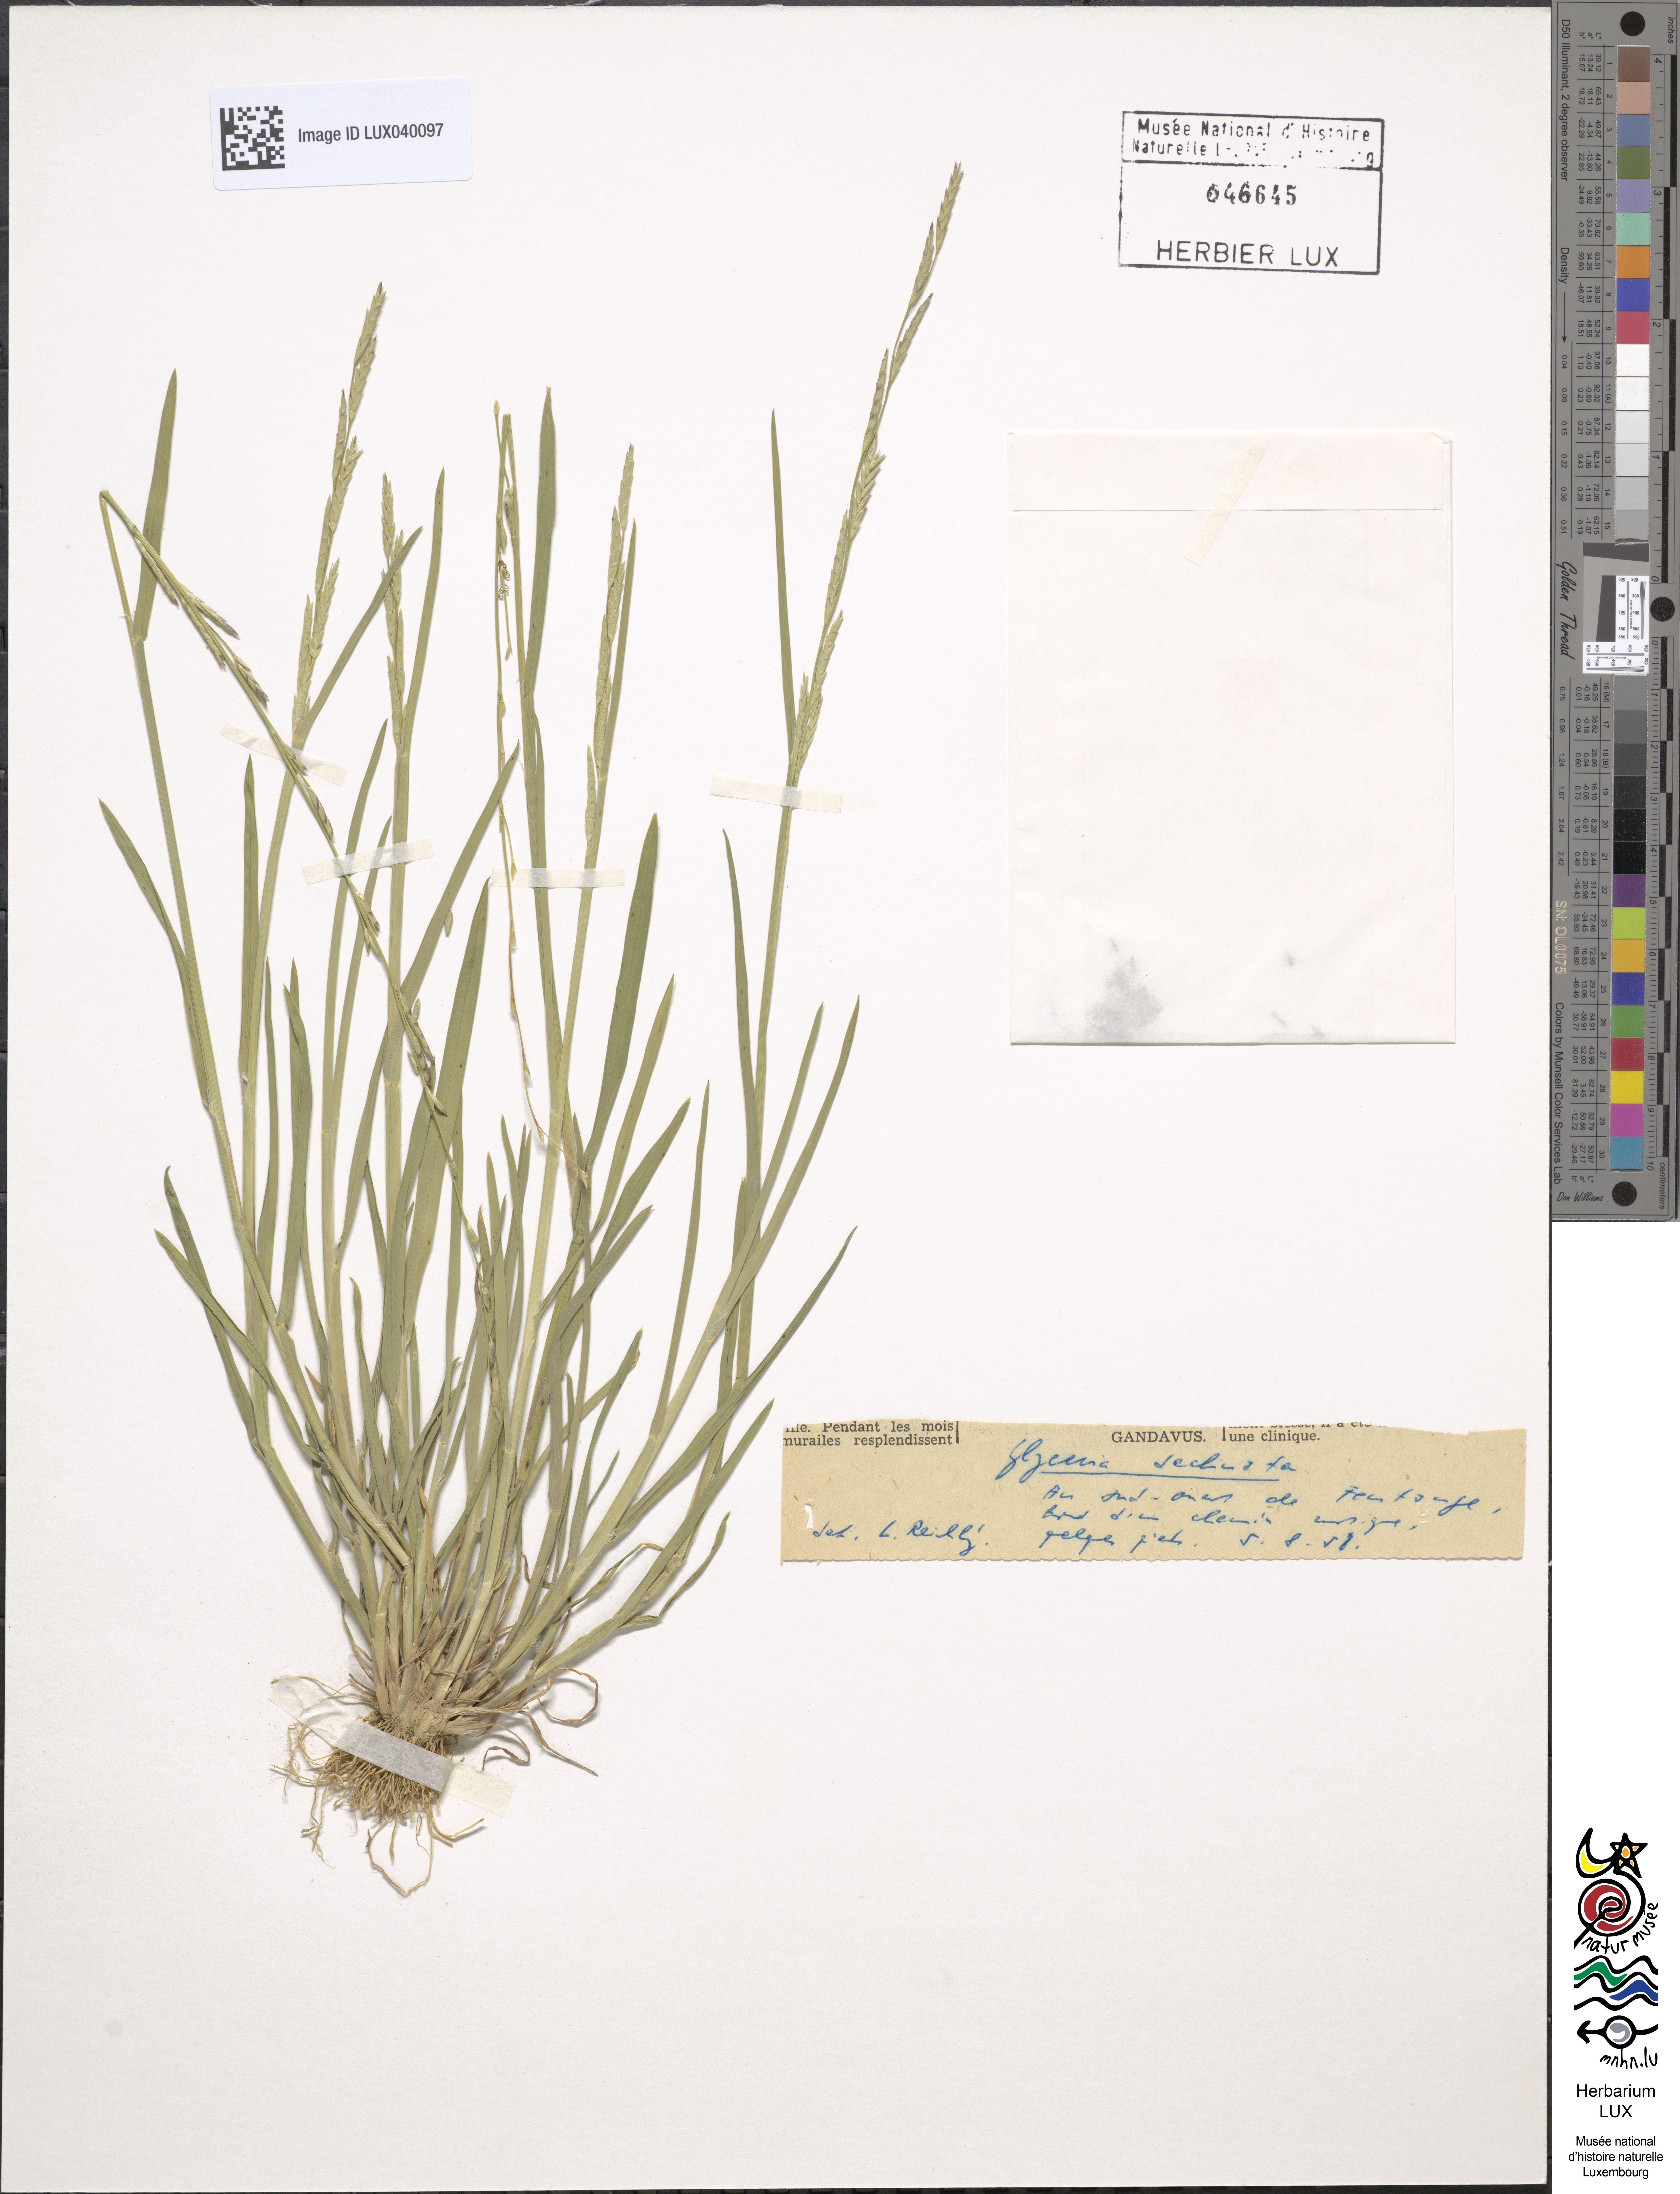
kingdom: Plantae
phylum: Tracheophyta
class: Liliopsida
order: Poales
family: Poaceae
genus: Glyceria
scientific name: Glyceria declinata
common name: Small sweet-grass
